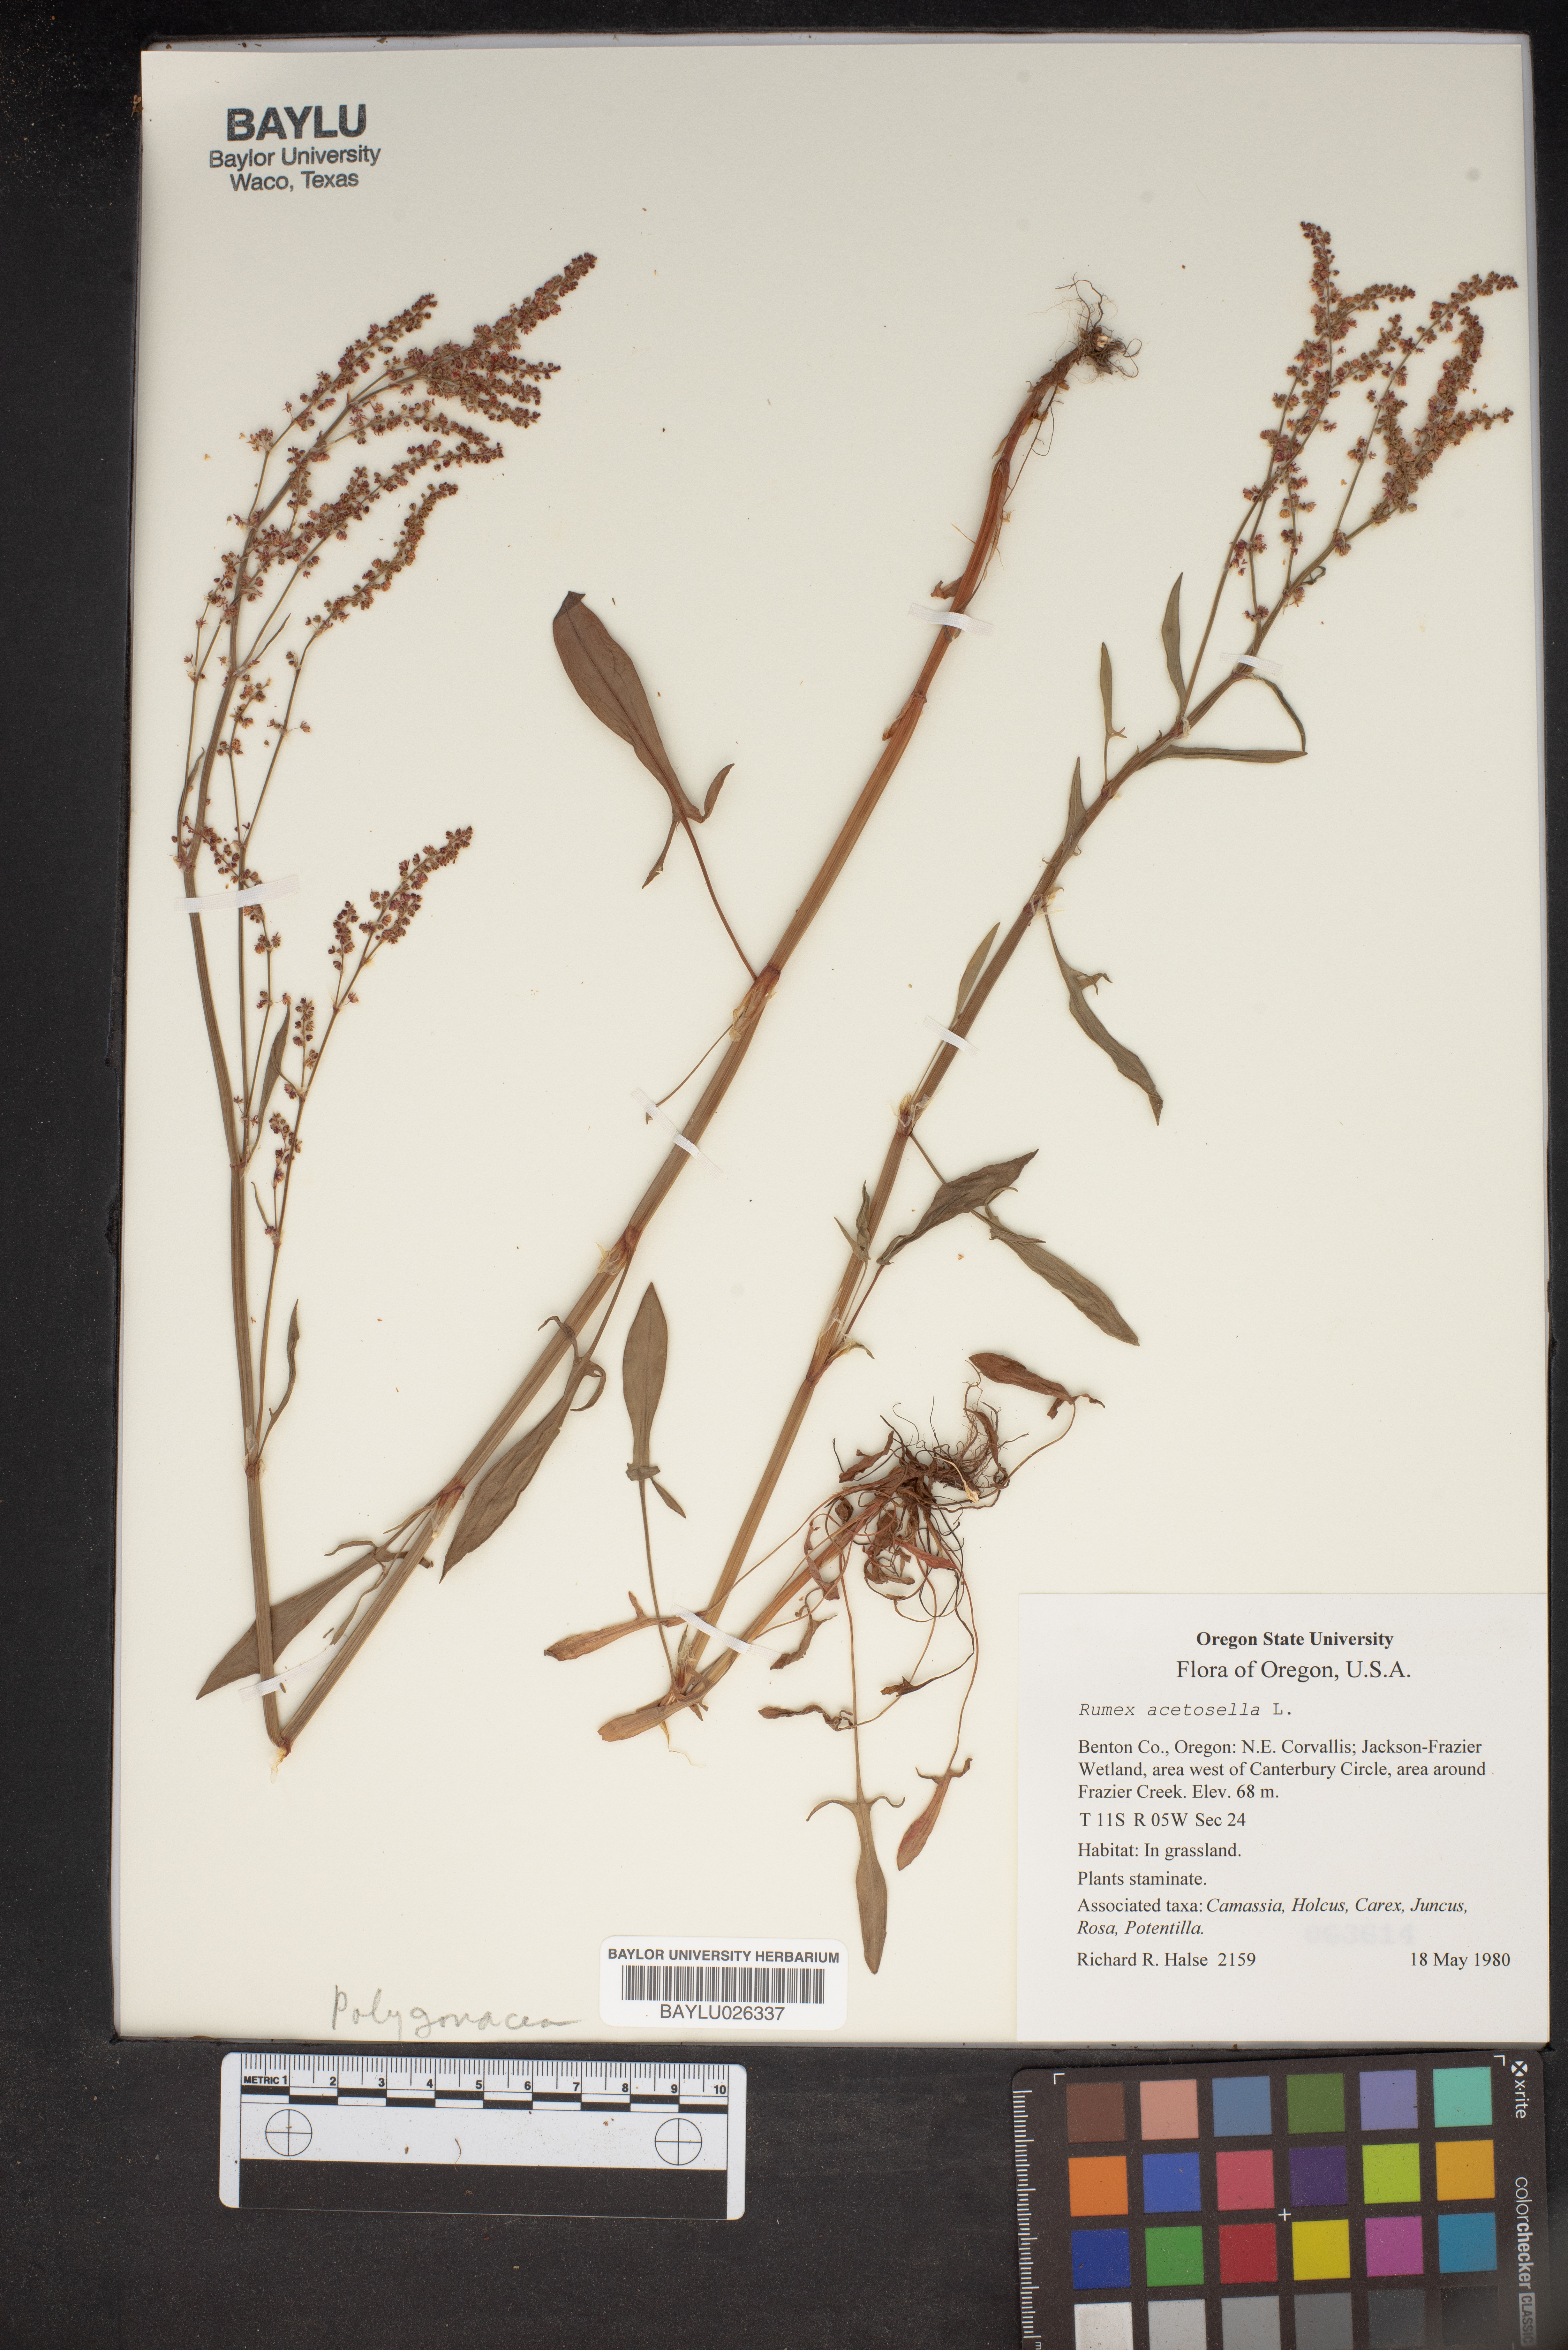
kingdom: Plantae
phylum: Tracheophyta
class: Magnoliopsida
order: Caryophyllales
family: Polygonaceae
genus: Rumex
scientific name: Rumex acetosella
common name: Common sheep sorrel
